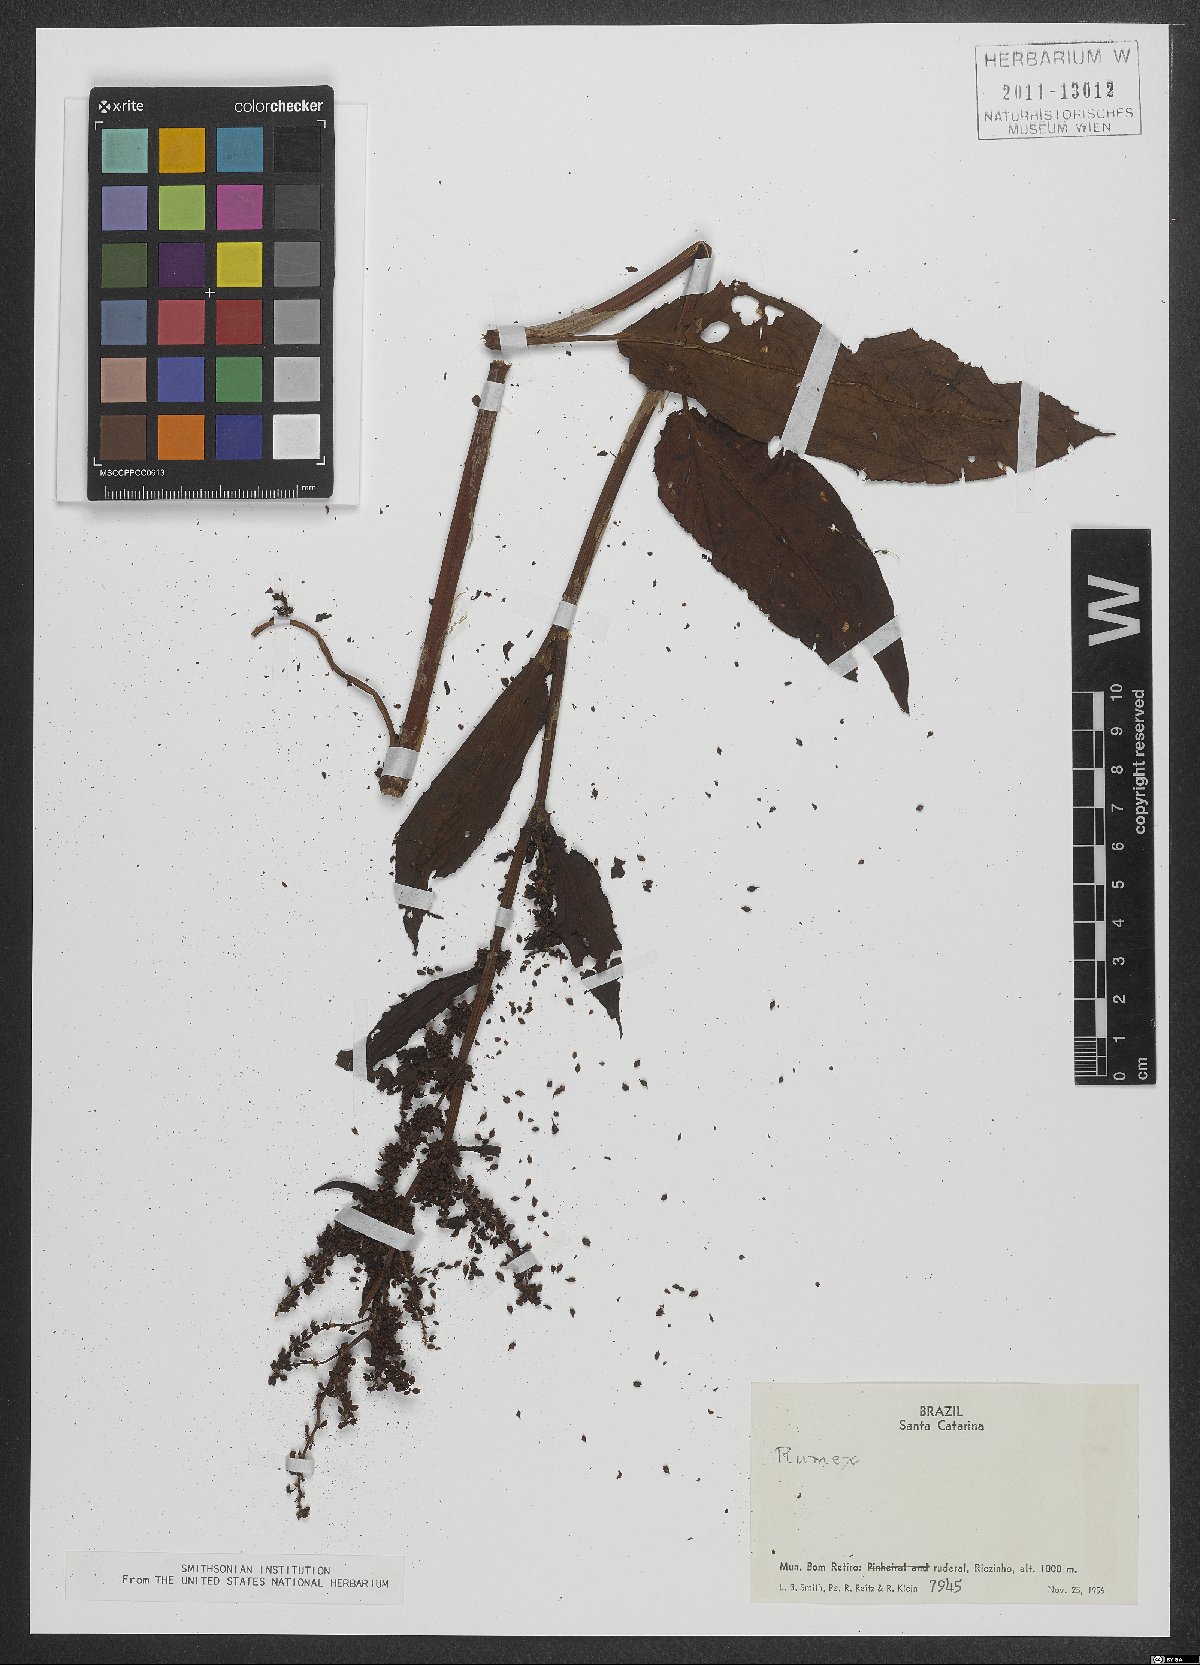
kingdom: Plantae
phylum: Tracheophyta
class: Magnoliopsida
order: Caryophyllales
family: Polygonaceae
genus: Rumex
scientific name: Rumex
